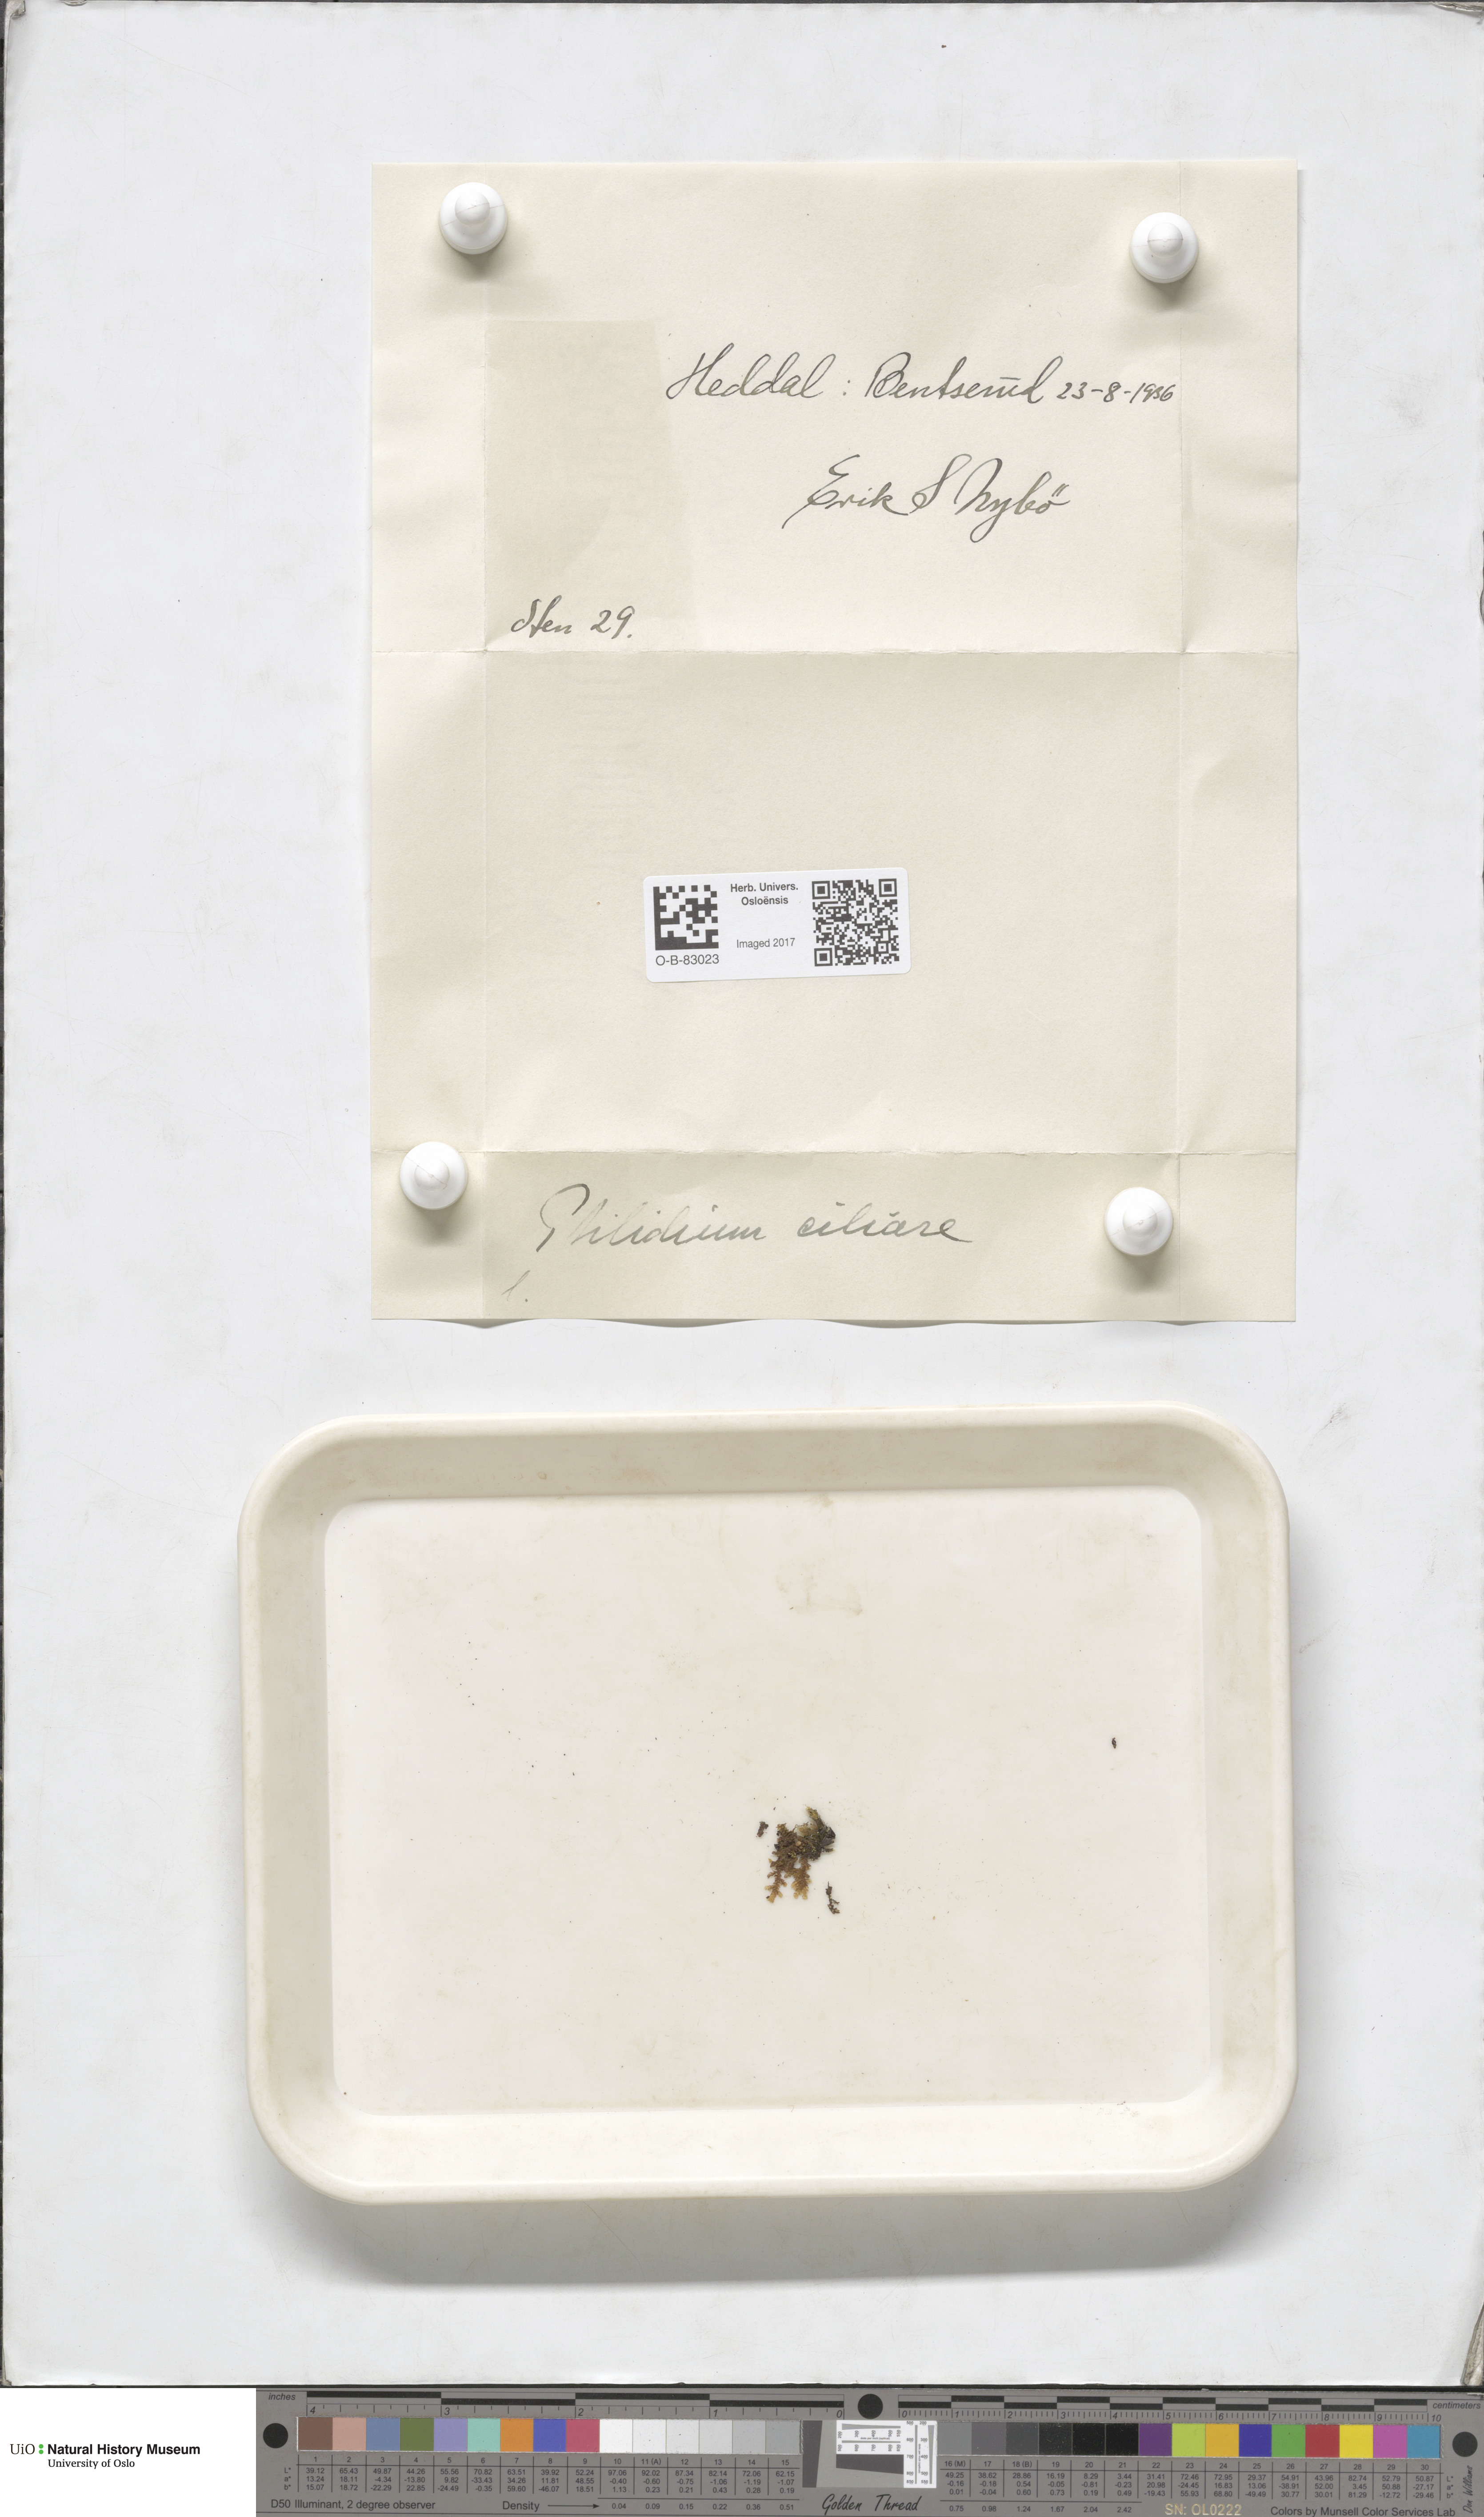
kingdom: Plantae
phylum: Marchantiophyta
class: Jungermanniopsida
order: Ptilidiales
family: Ptilidiaceae
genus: Ptilidium
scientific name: Ptilidium ciliare
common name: Ciliate fringewort
